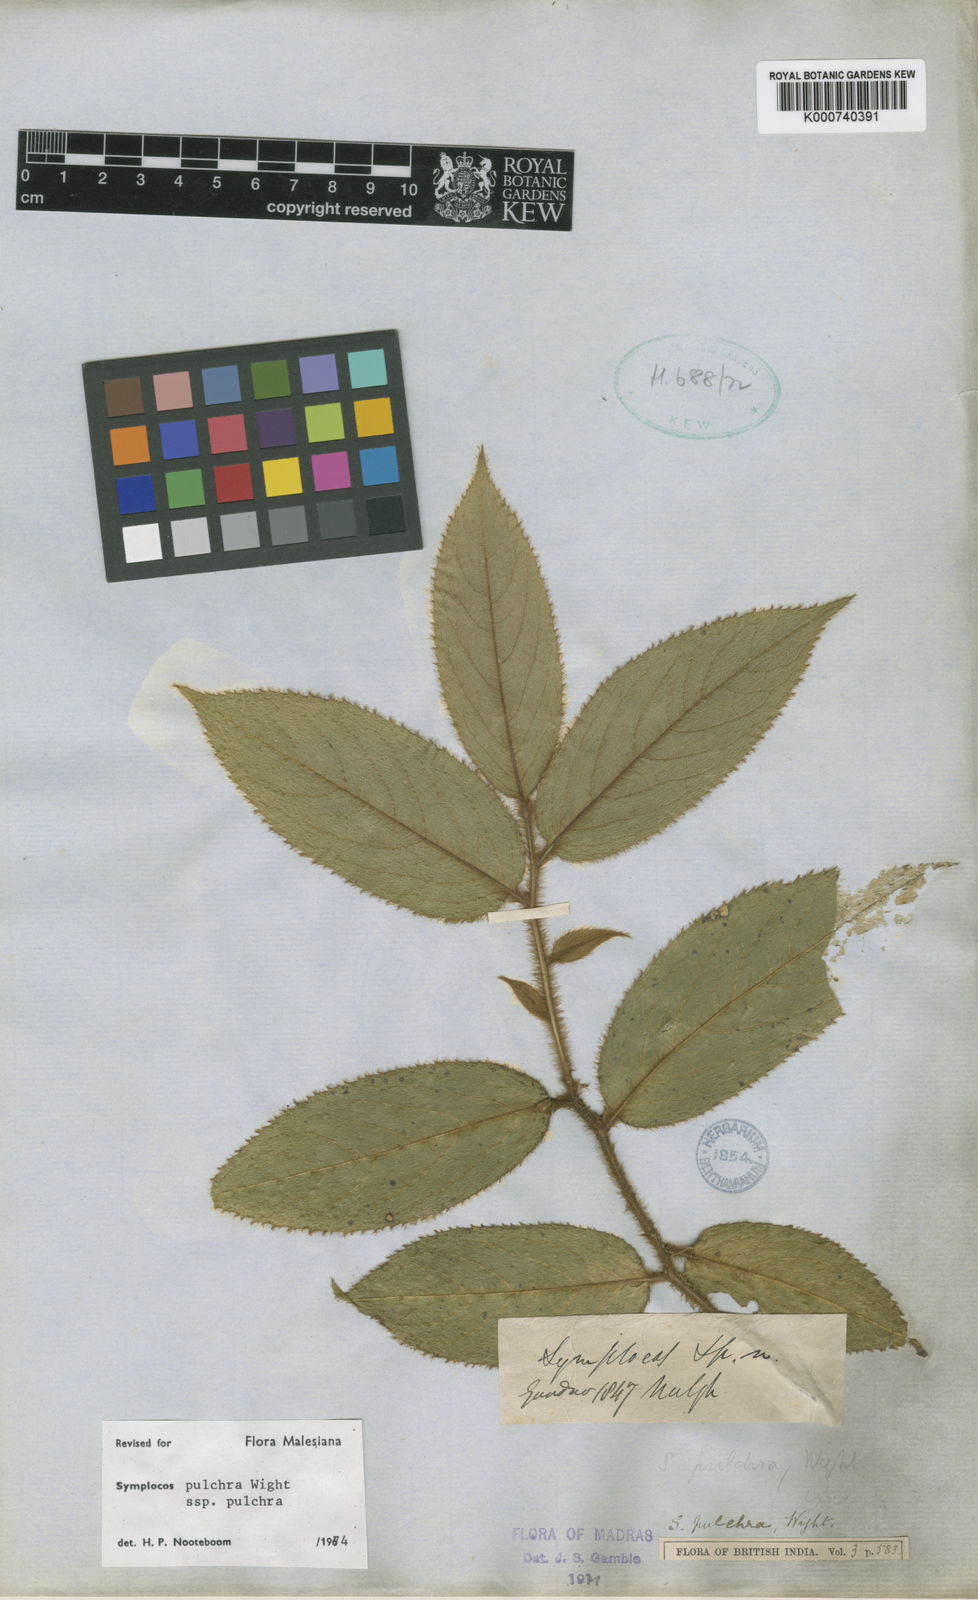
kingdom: Plantae
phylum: Tracheophyta
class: Magnoliopsida
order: Ericales
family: Symplocaceae
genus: Symplocos
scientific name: Symplocos pulchra
